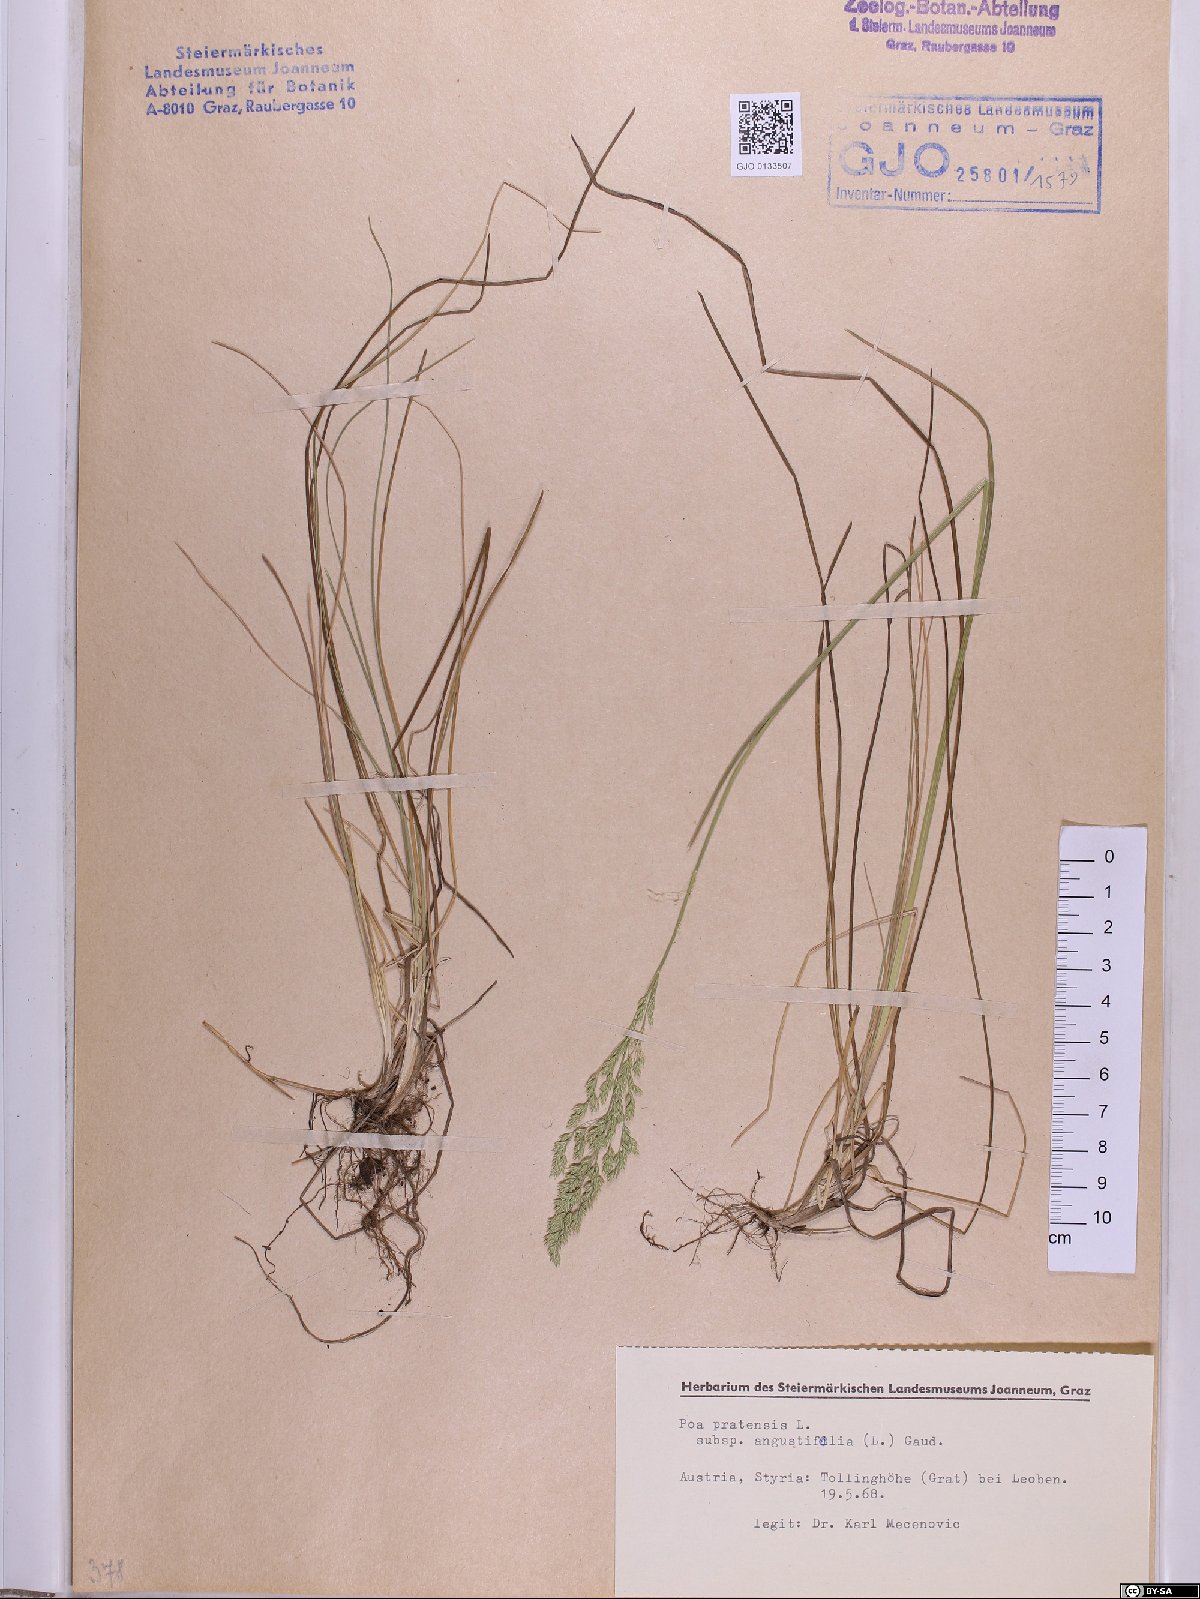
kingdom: Plantae
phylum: Tracheophyta
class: Liliopsida
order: Poales
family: Poaceae
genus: Poa
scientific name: Poa angustifolia
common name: Narrow-leaved meadow-grass
